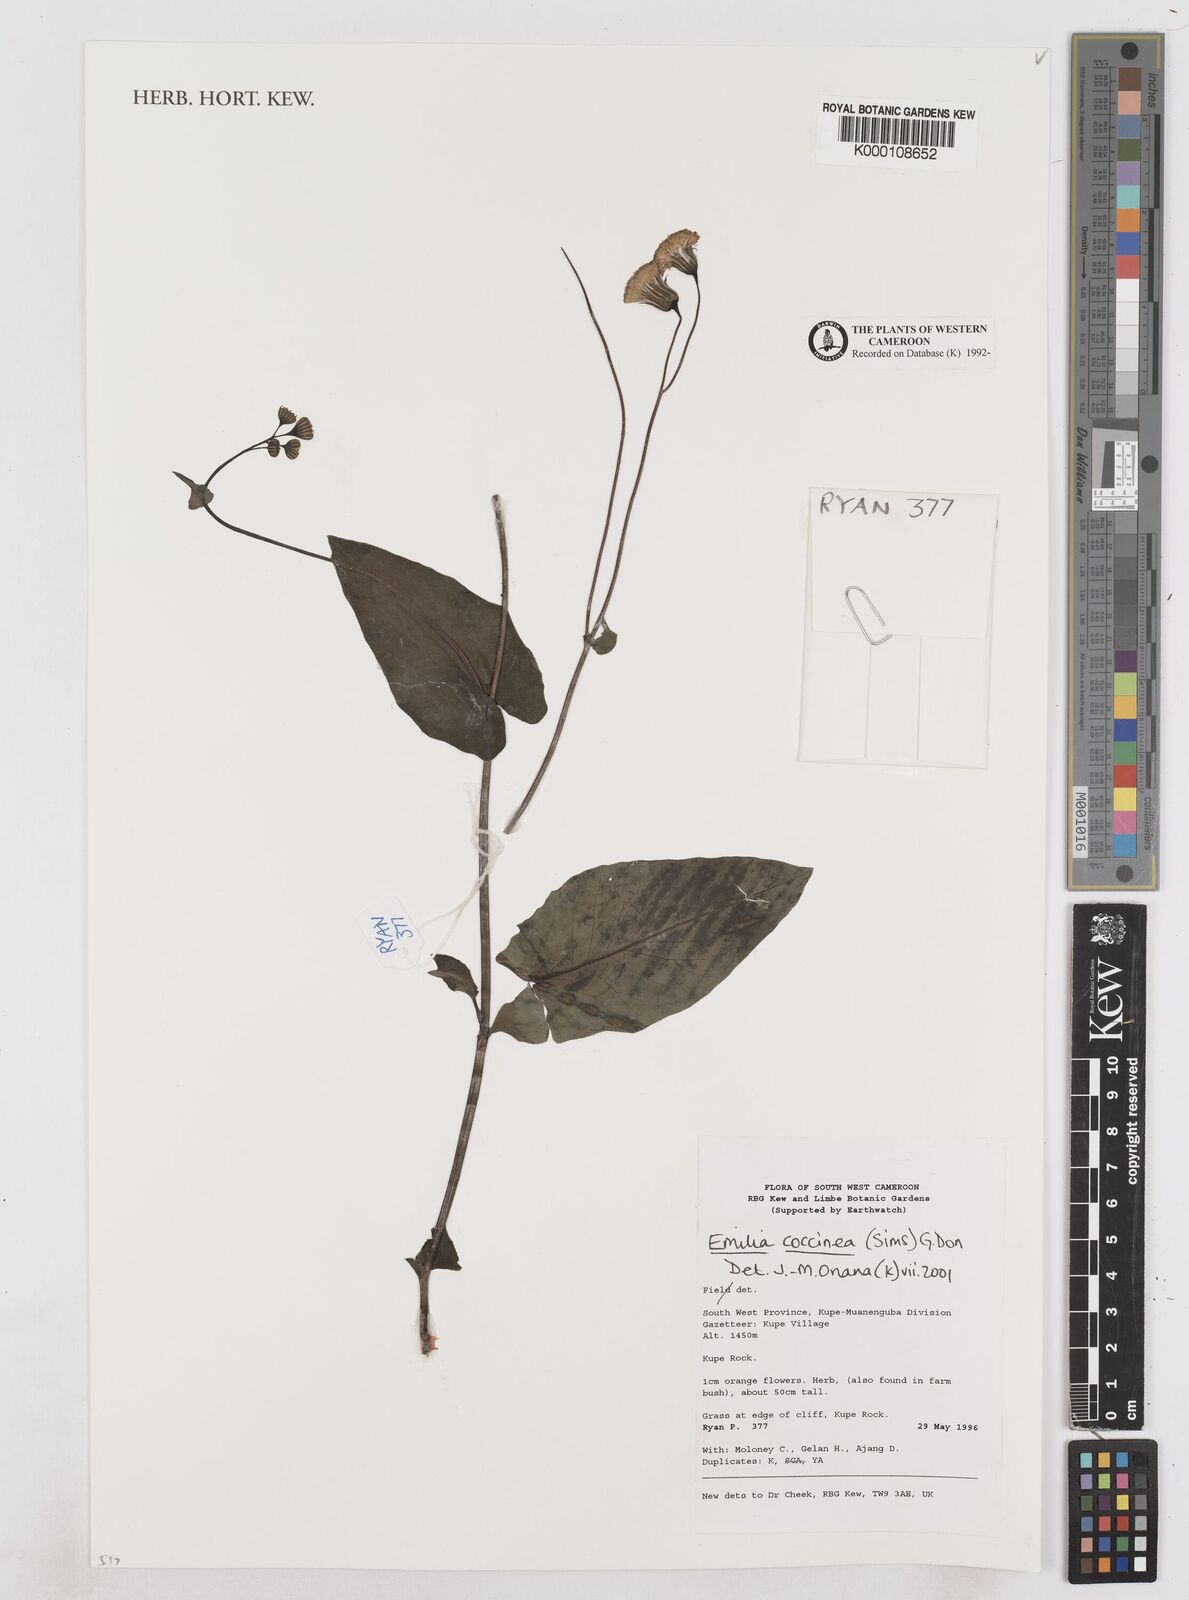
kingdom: Plantae
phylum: Tracheophyta
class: Magnoliopsida
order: Asterales
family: Asteraceae
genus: Emilia
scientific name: Emilia coccinea
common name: Scarlet tasselflower
